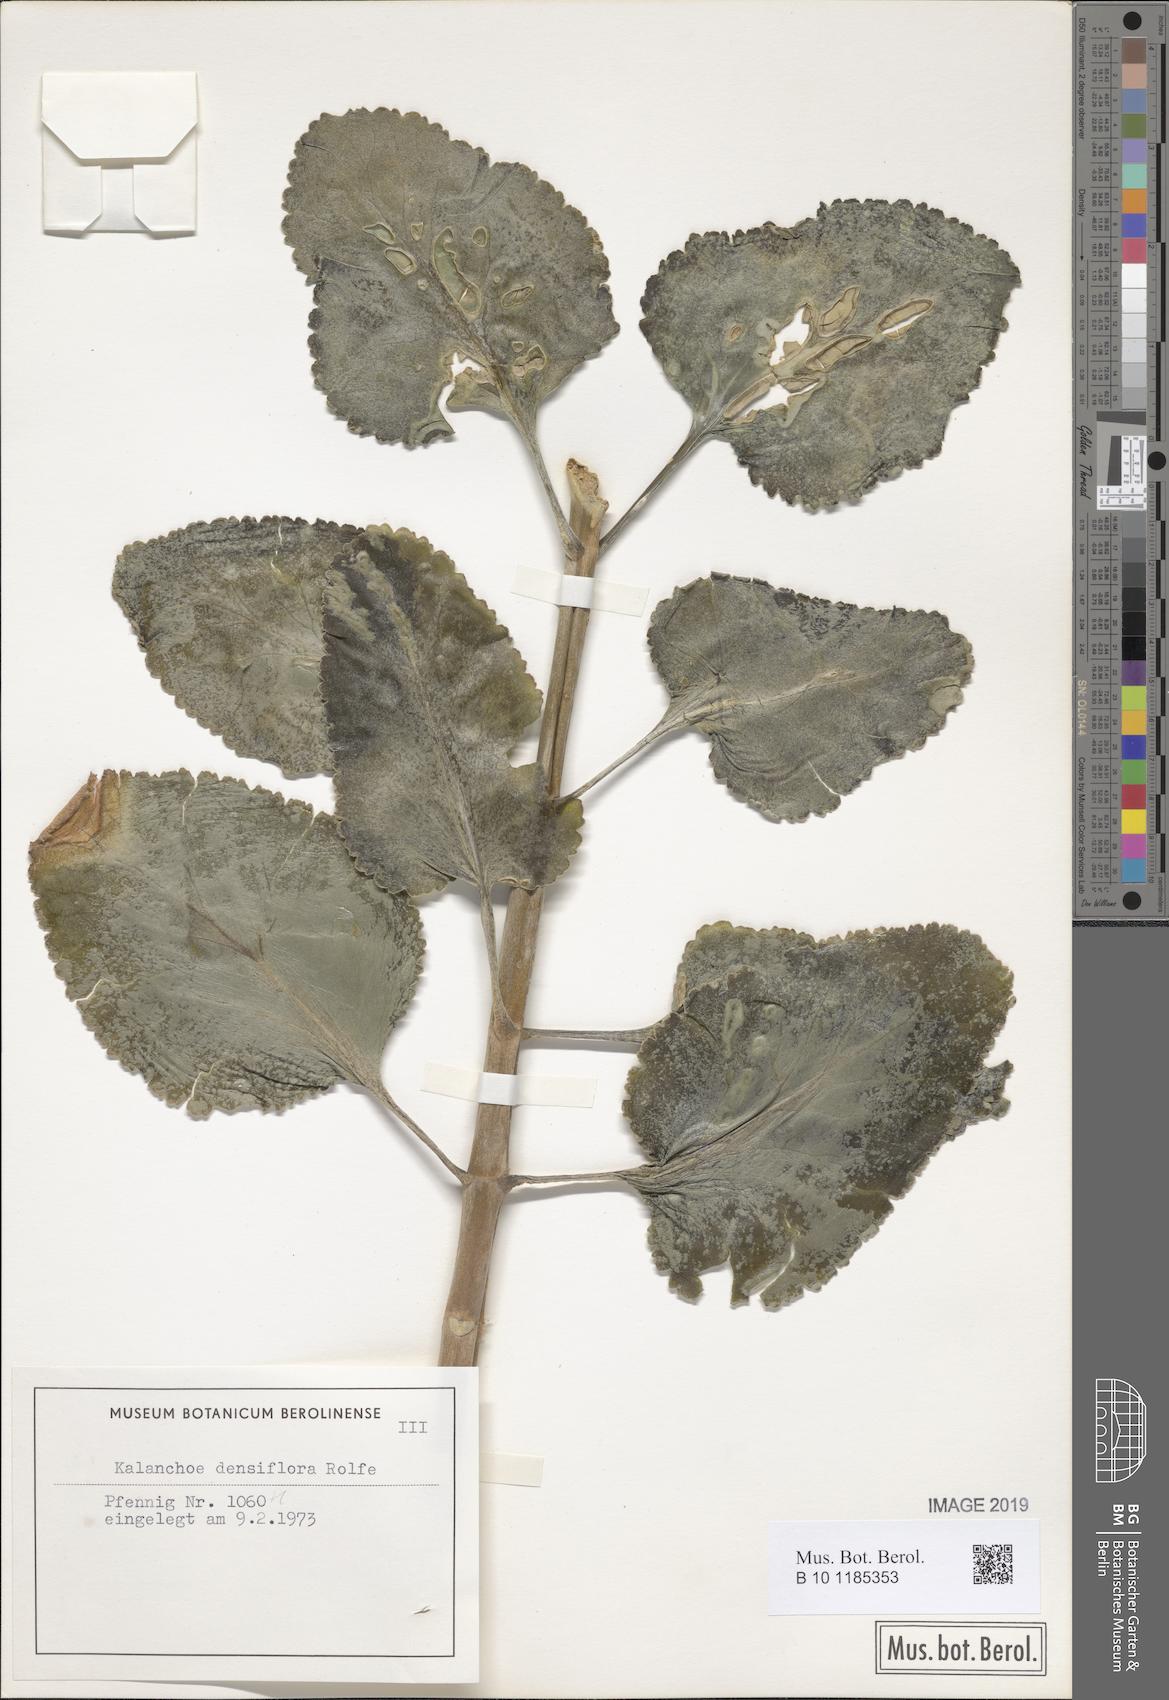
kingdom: Plantae
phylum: Tracheophyta
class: Magnoliopsida
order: Saxifragales
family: Crassulaceae
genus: Kalanchoe
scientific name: Kalanchoe densiflora
